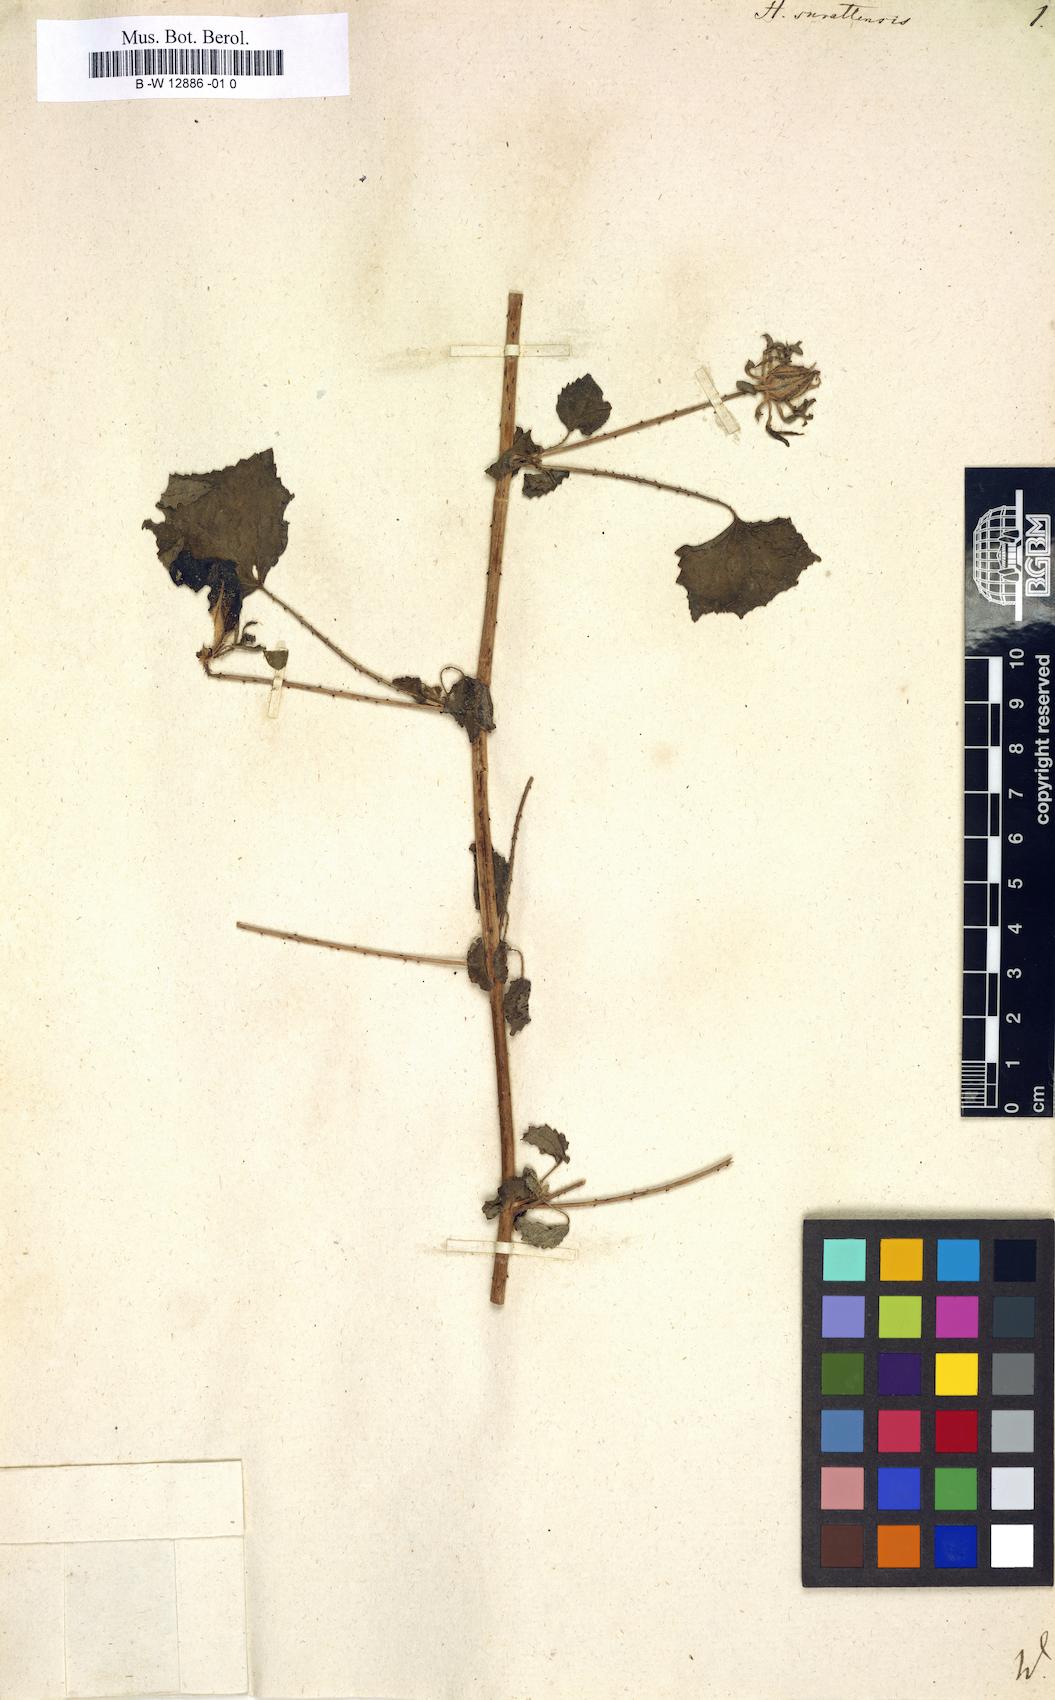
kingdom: Plantae
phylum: Tracheophyta
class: Magnoliopsida
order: Malvales
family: Malvaceae
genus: Hibiscus
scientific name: Hibiscus surattensis
